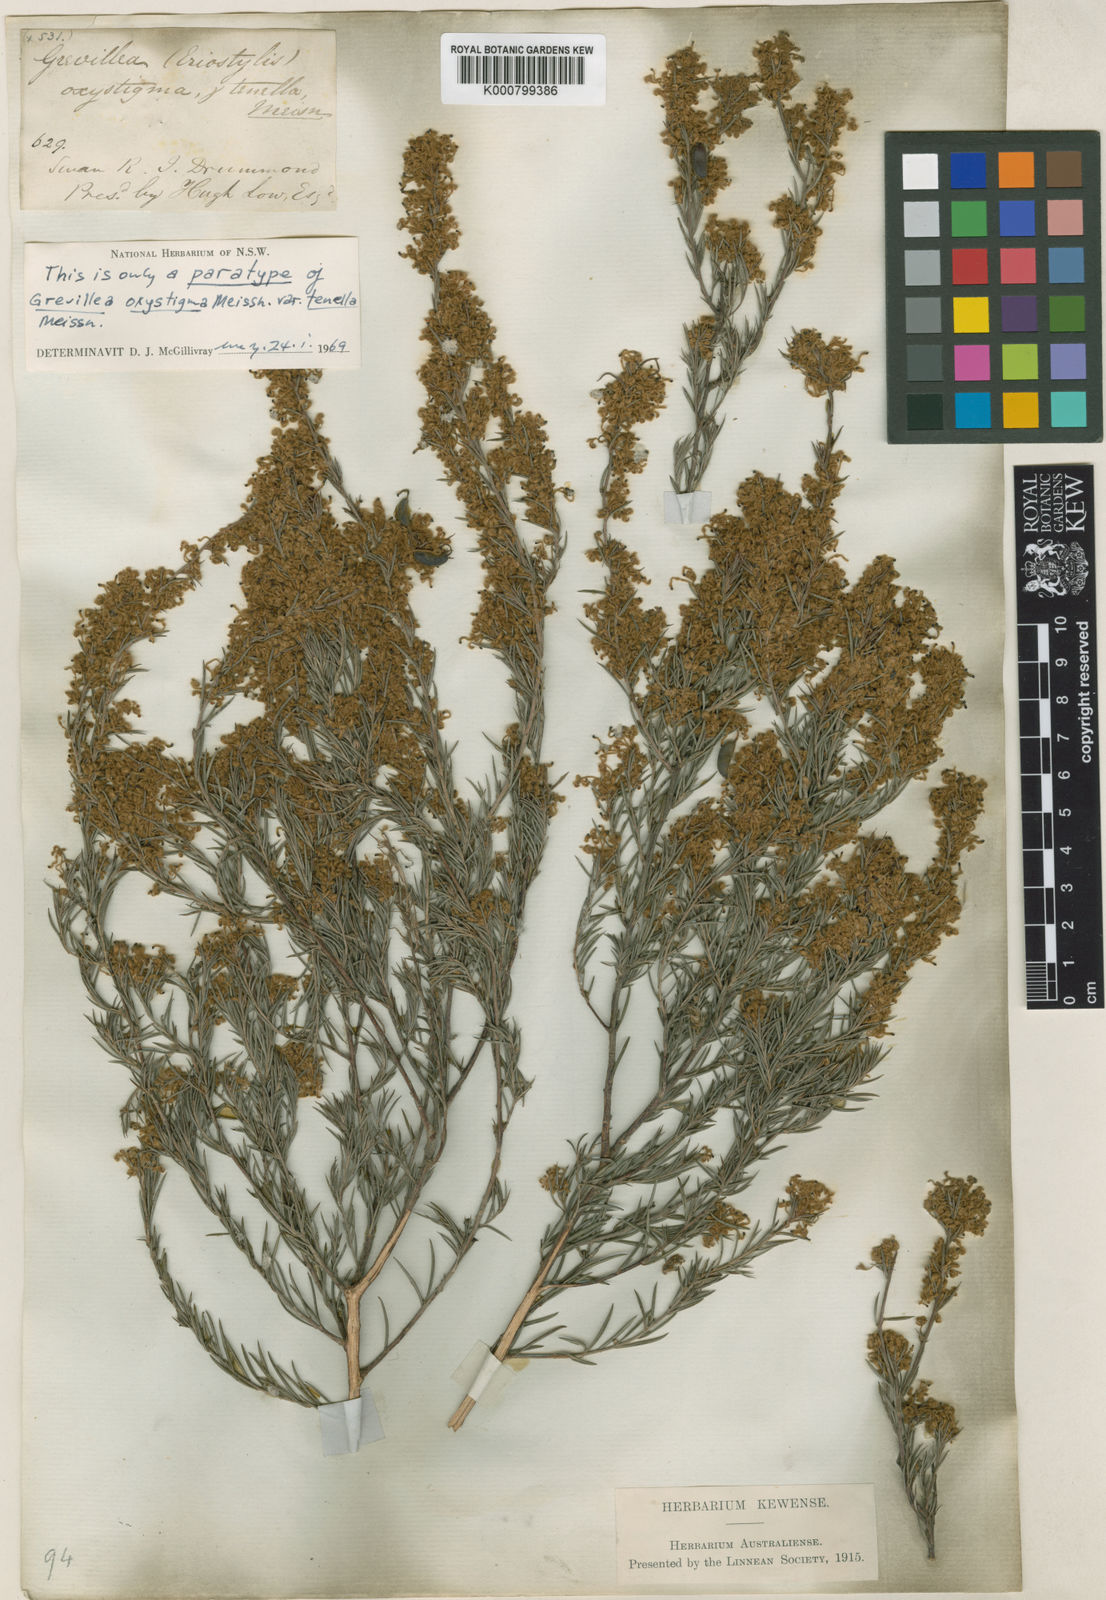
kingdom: Plantae
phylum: Tracheophyta
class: Magnoliopsida
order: Proteales
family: Proteaceae
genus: Grevillea
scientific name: Grevillea pilulifera
